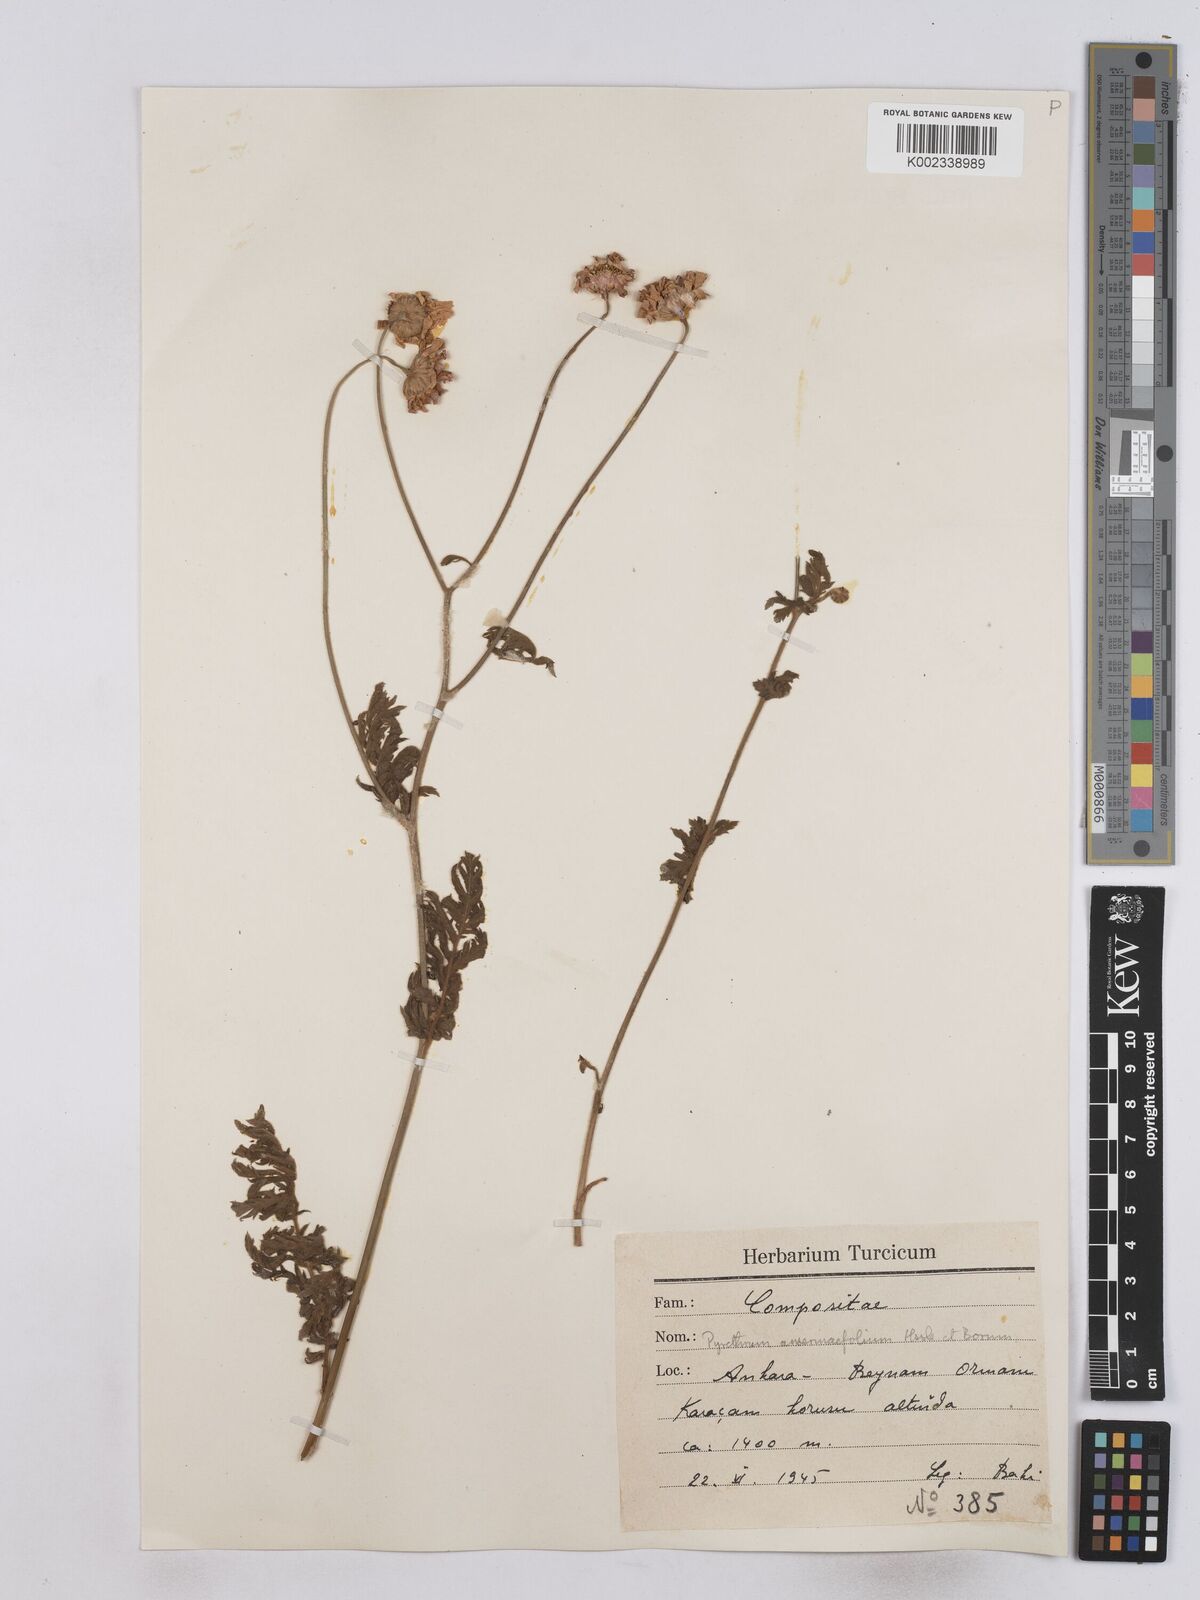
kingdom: Plantae
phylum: Tracheophyta
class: Magnoliopsida
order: Asterales
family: Asteraceae
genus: Tanacetum
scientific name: Tanacetum
